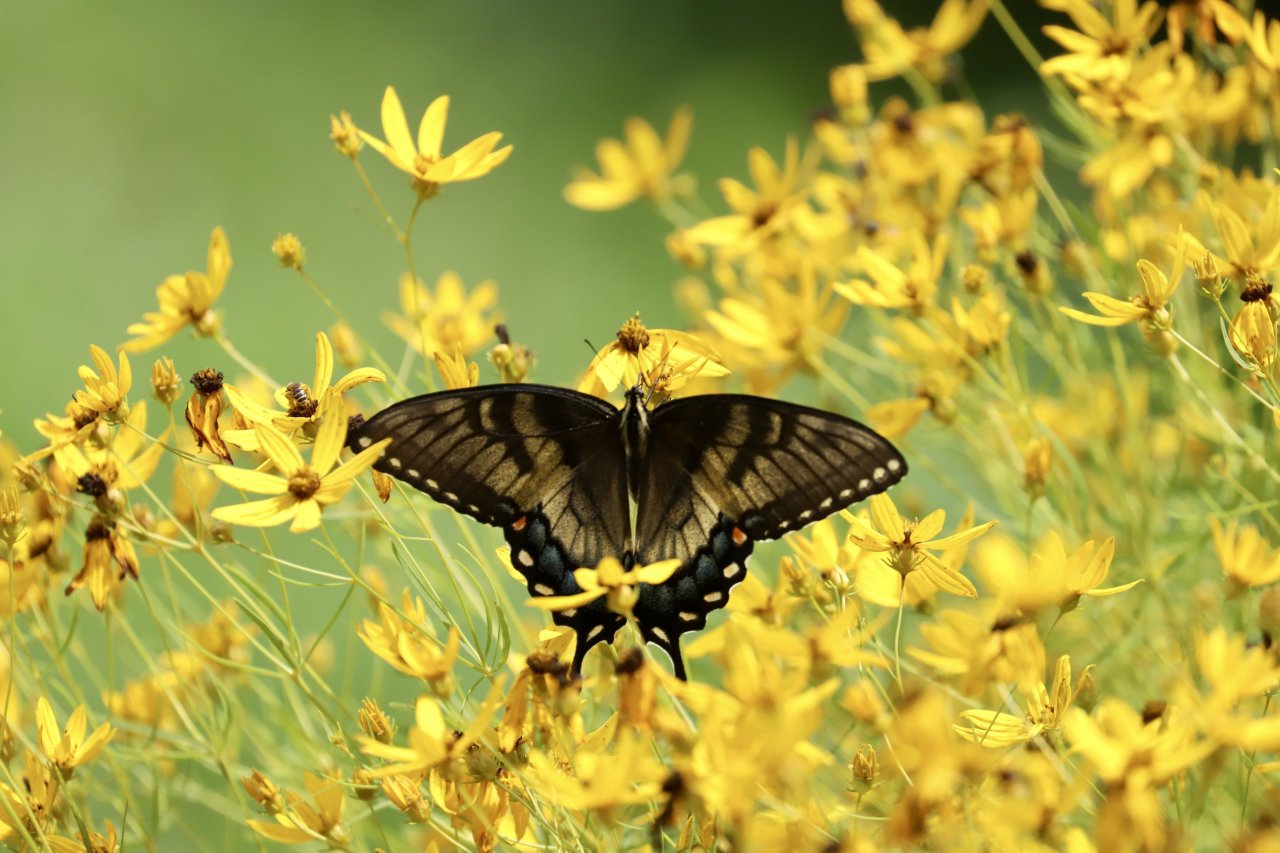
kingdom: Animalia
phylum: Arthropoda
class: Insecta
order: Lepidoptera
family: Papilionidae
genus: Pterourus
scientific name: Pterourus glaucus
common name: Eastern Tiger Swallowtail
